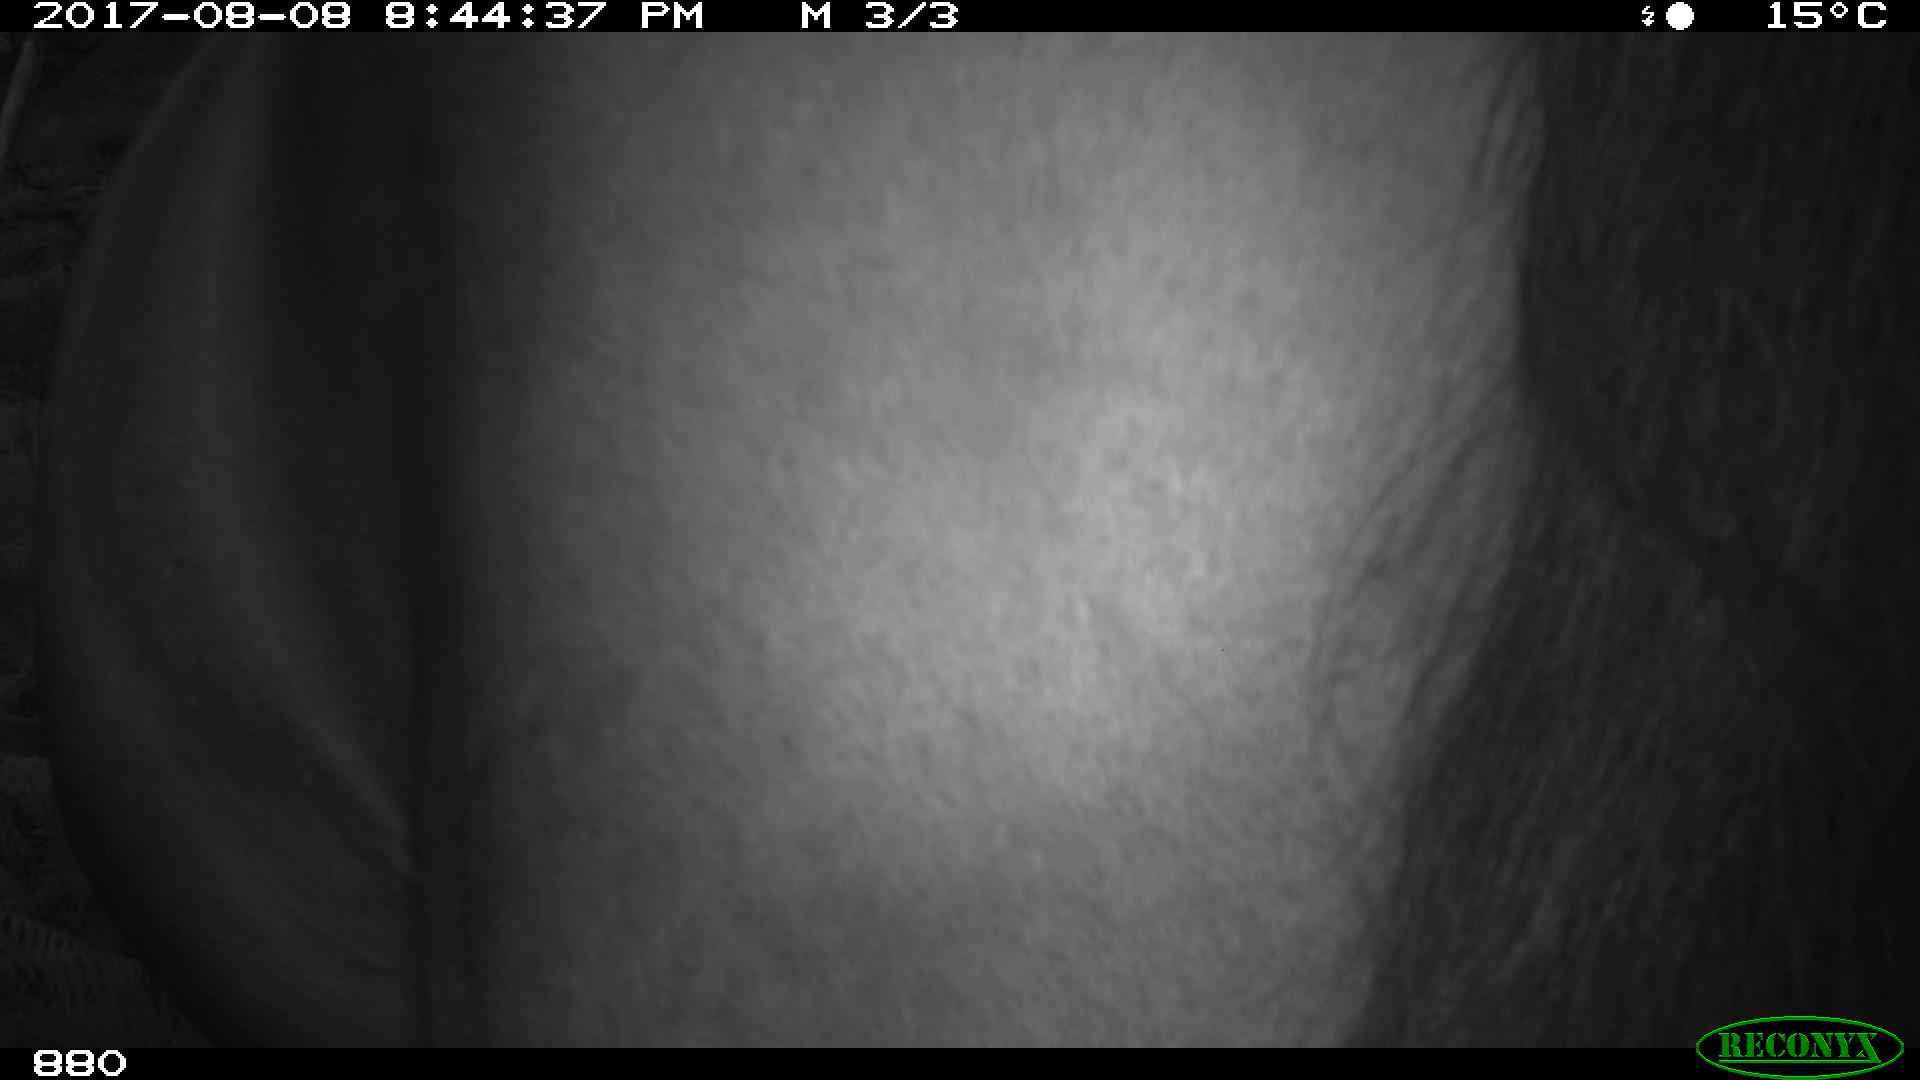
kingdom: Animalia
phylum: Chordata
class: Mammalia
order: Perissodactyla
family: Equidae
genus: Equus
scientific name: Equus caballus
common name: Horse
